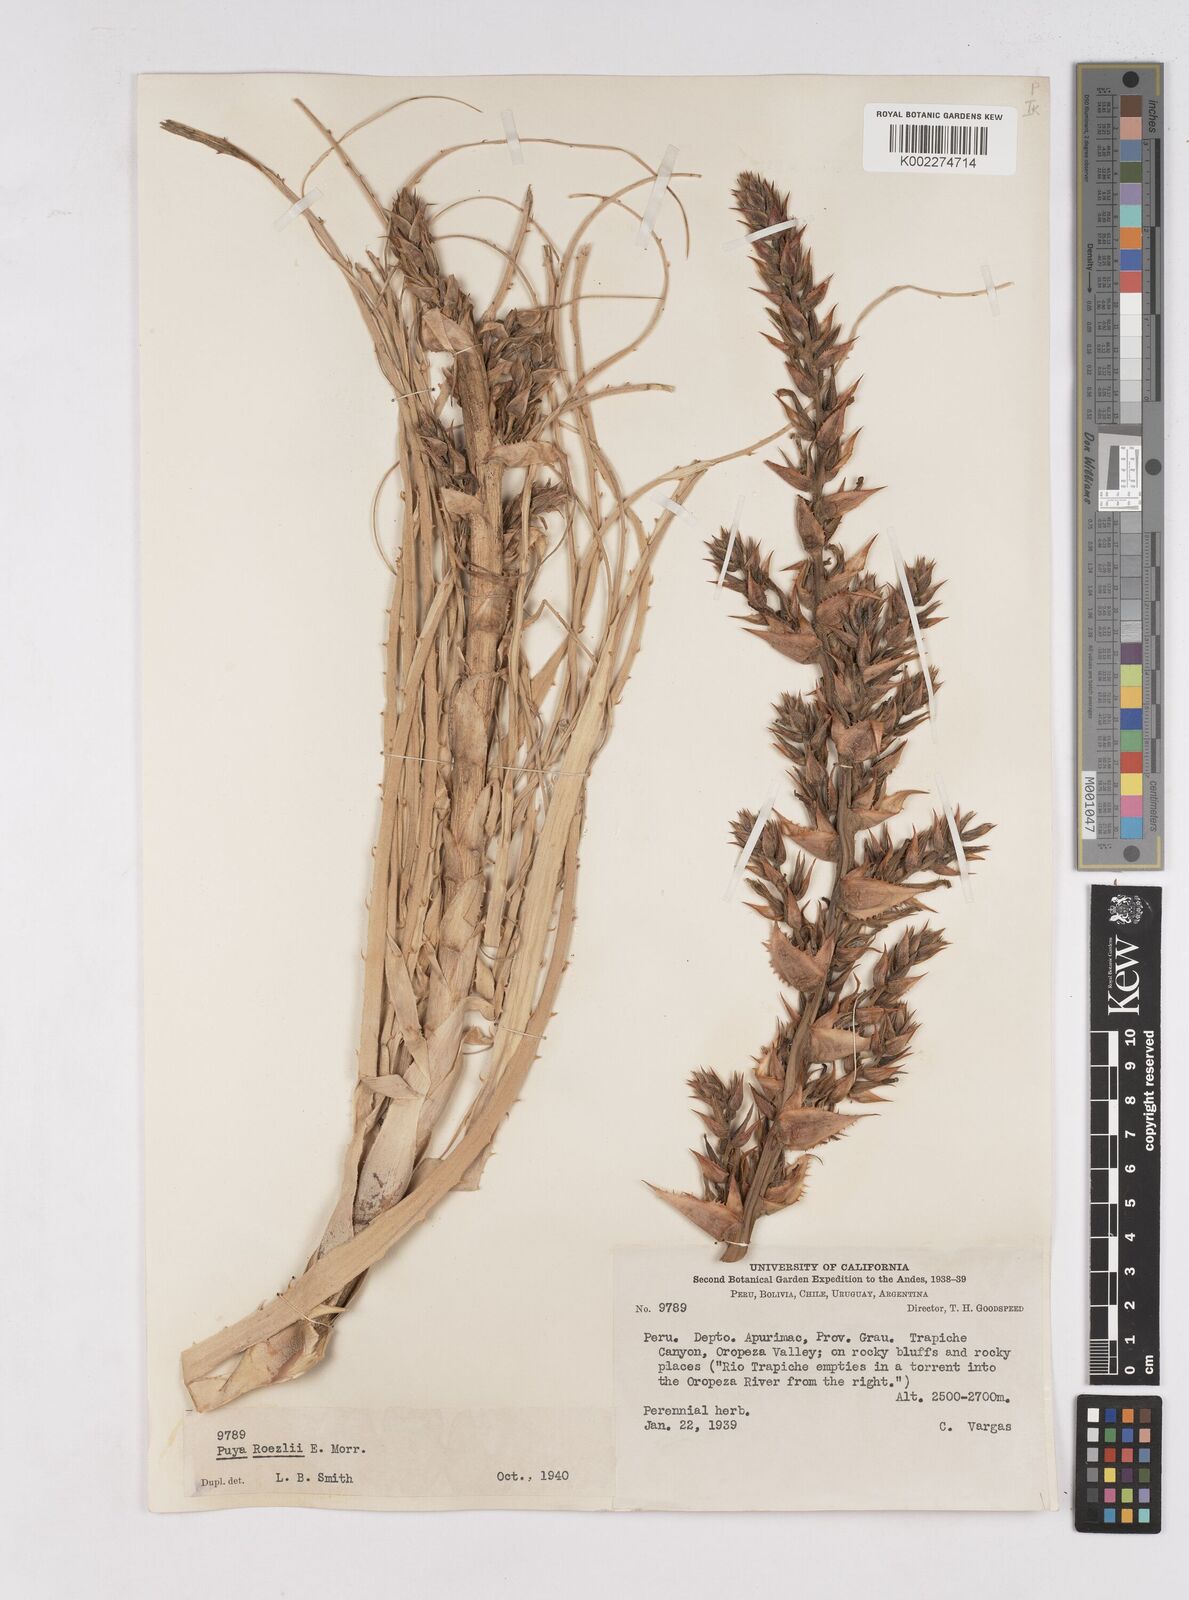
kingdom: Plantae
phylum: Tracheophyta
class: Liliopsida
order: Poales
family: Bromeliaceae
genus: Puya
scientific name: Puya roezlii
